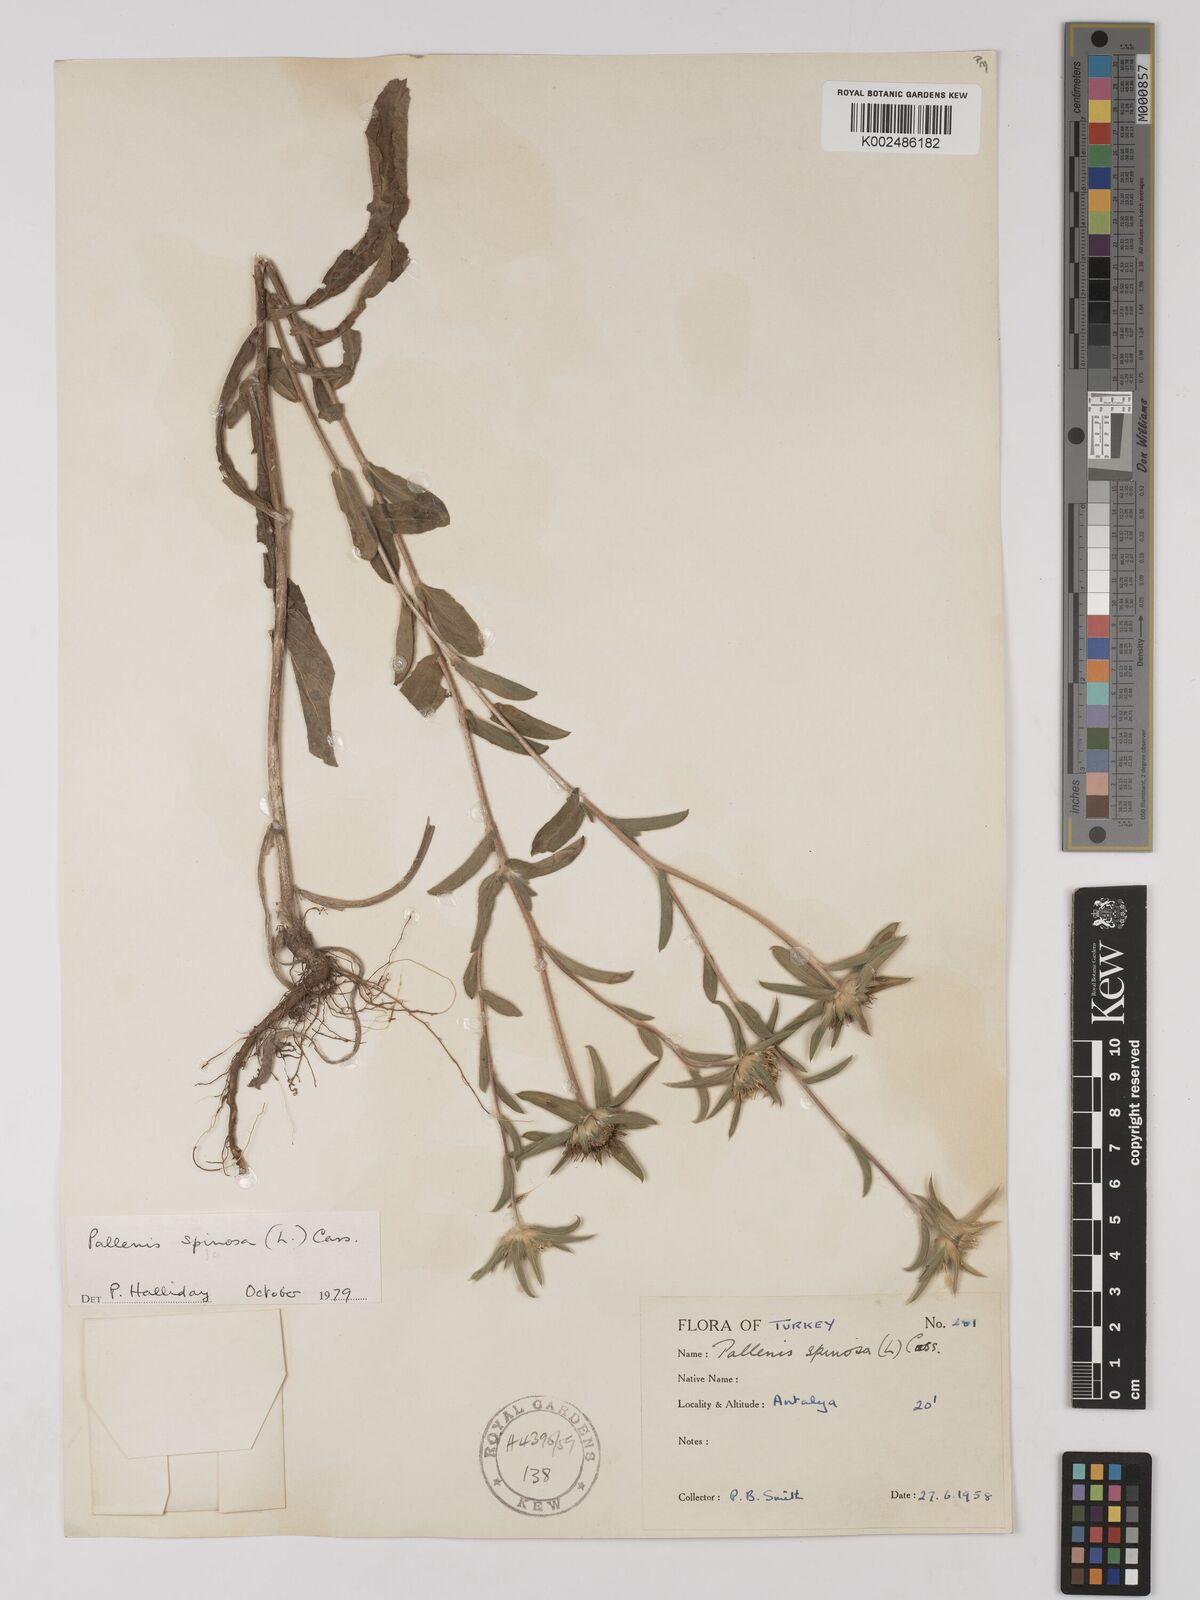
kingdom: Plantae
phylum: Tracheophyta
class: Magnoliopsida
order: Asterales
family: Asteraceae
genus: Pallenis
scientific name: Pallenis spinosa
